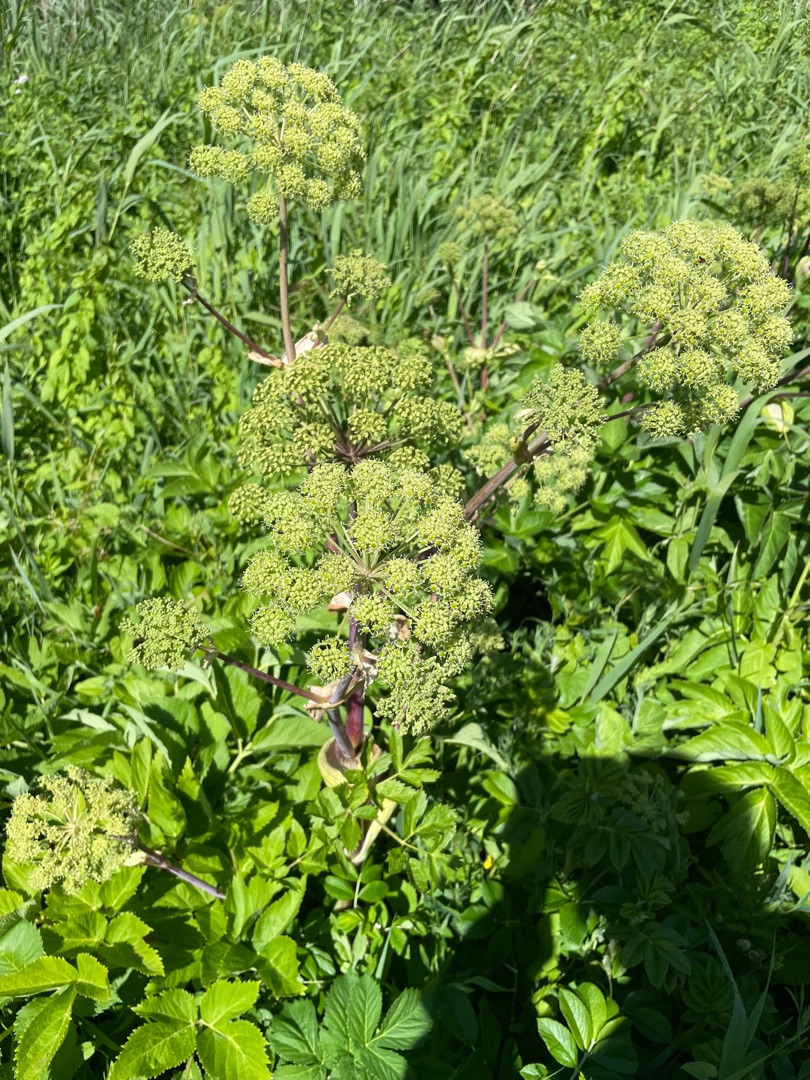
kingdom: Plantae
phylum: Tracheophyta
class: Magnoliopsida
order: Apiales
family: Apiaceae
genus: Angelica
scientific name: Angelica archangelica
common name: Kvan
